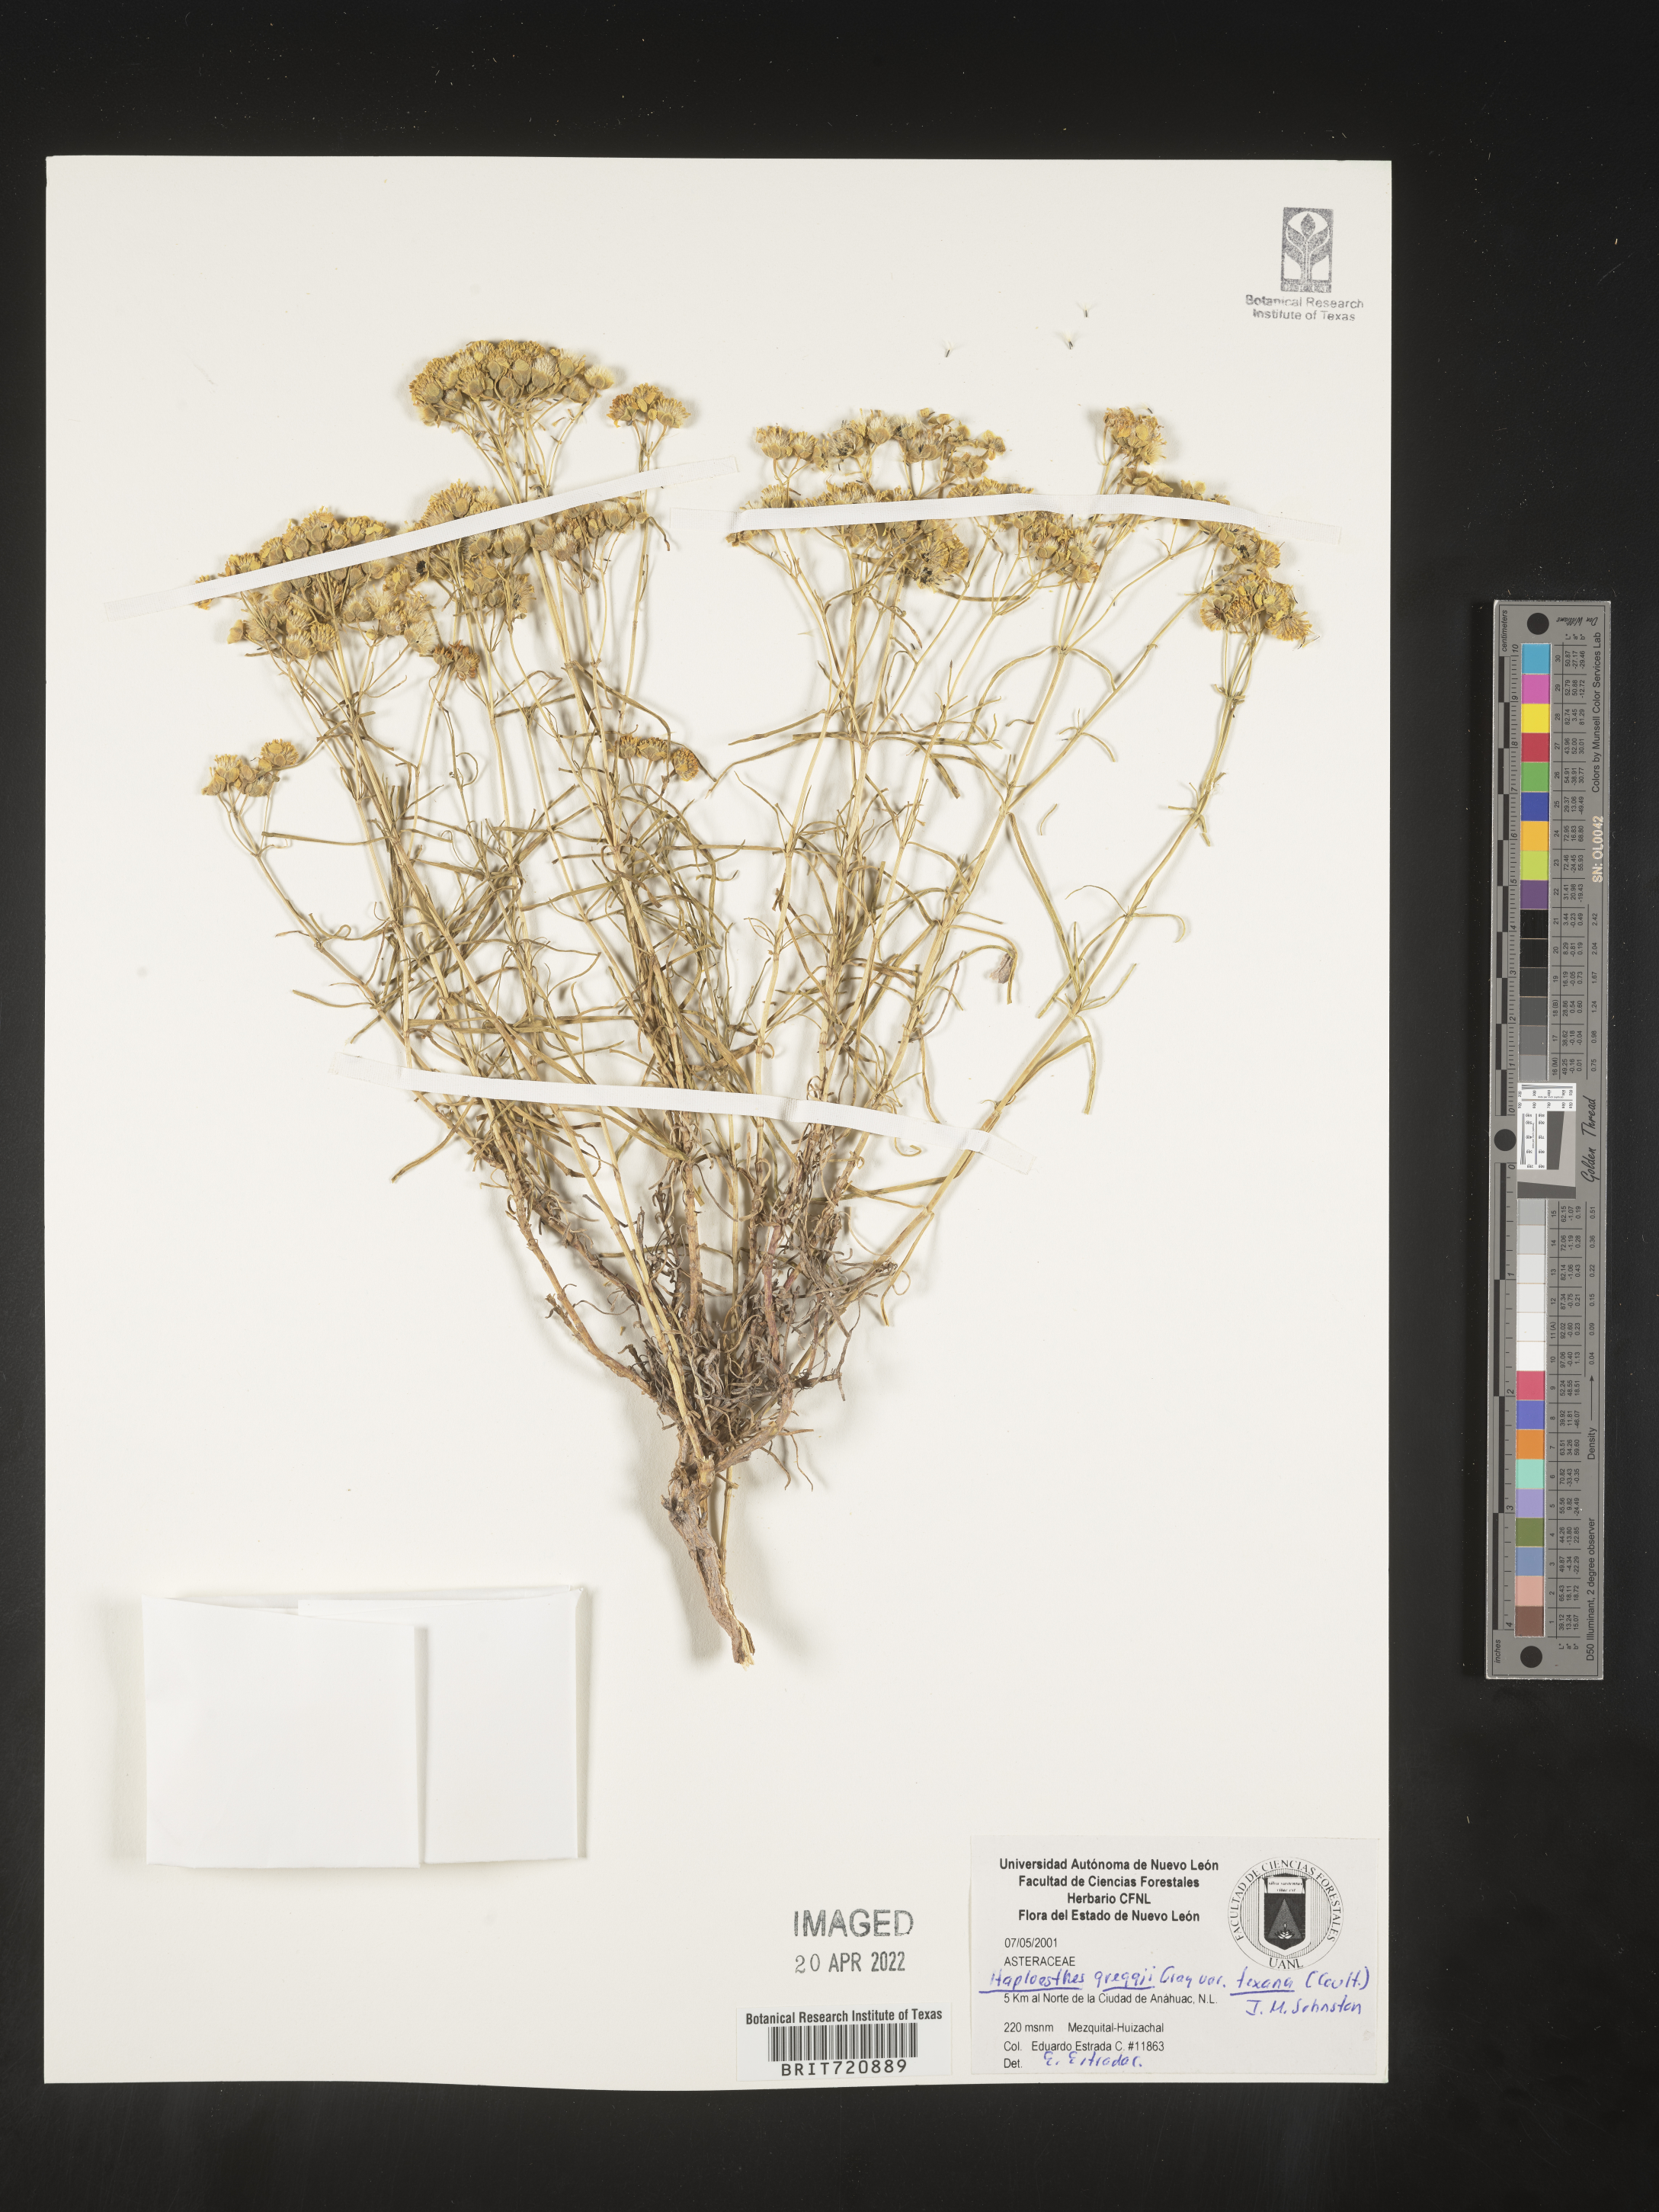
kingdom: Plantae
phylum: Tracheophyta
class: Magnoliopsida
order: Asterales
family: Asteraceae
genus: Haploesthes
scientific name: Haploesthes greggii
